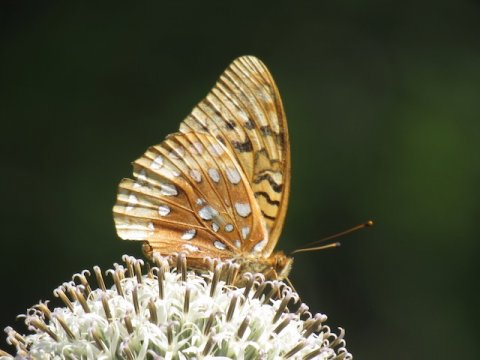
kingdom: Animalia
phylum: Arthropoda
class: Insecta
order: Lepidoptera
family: Nymphalidae
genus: Speyeria
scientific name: Speyeria cybele
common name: Great Spangled Fritillary
